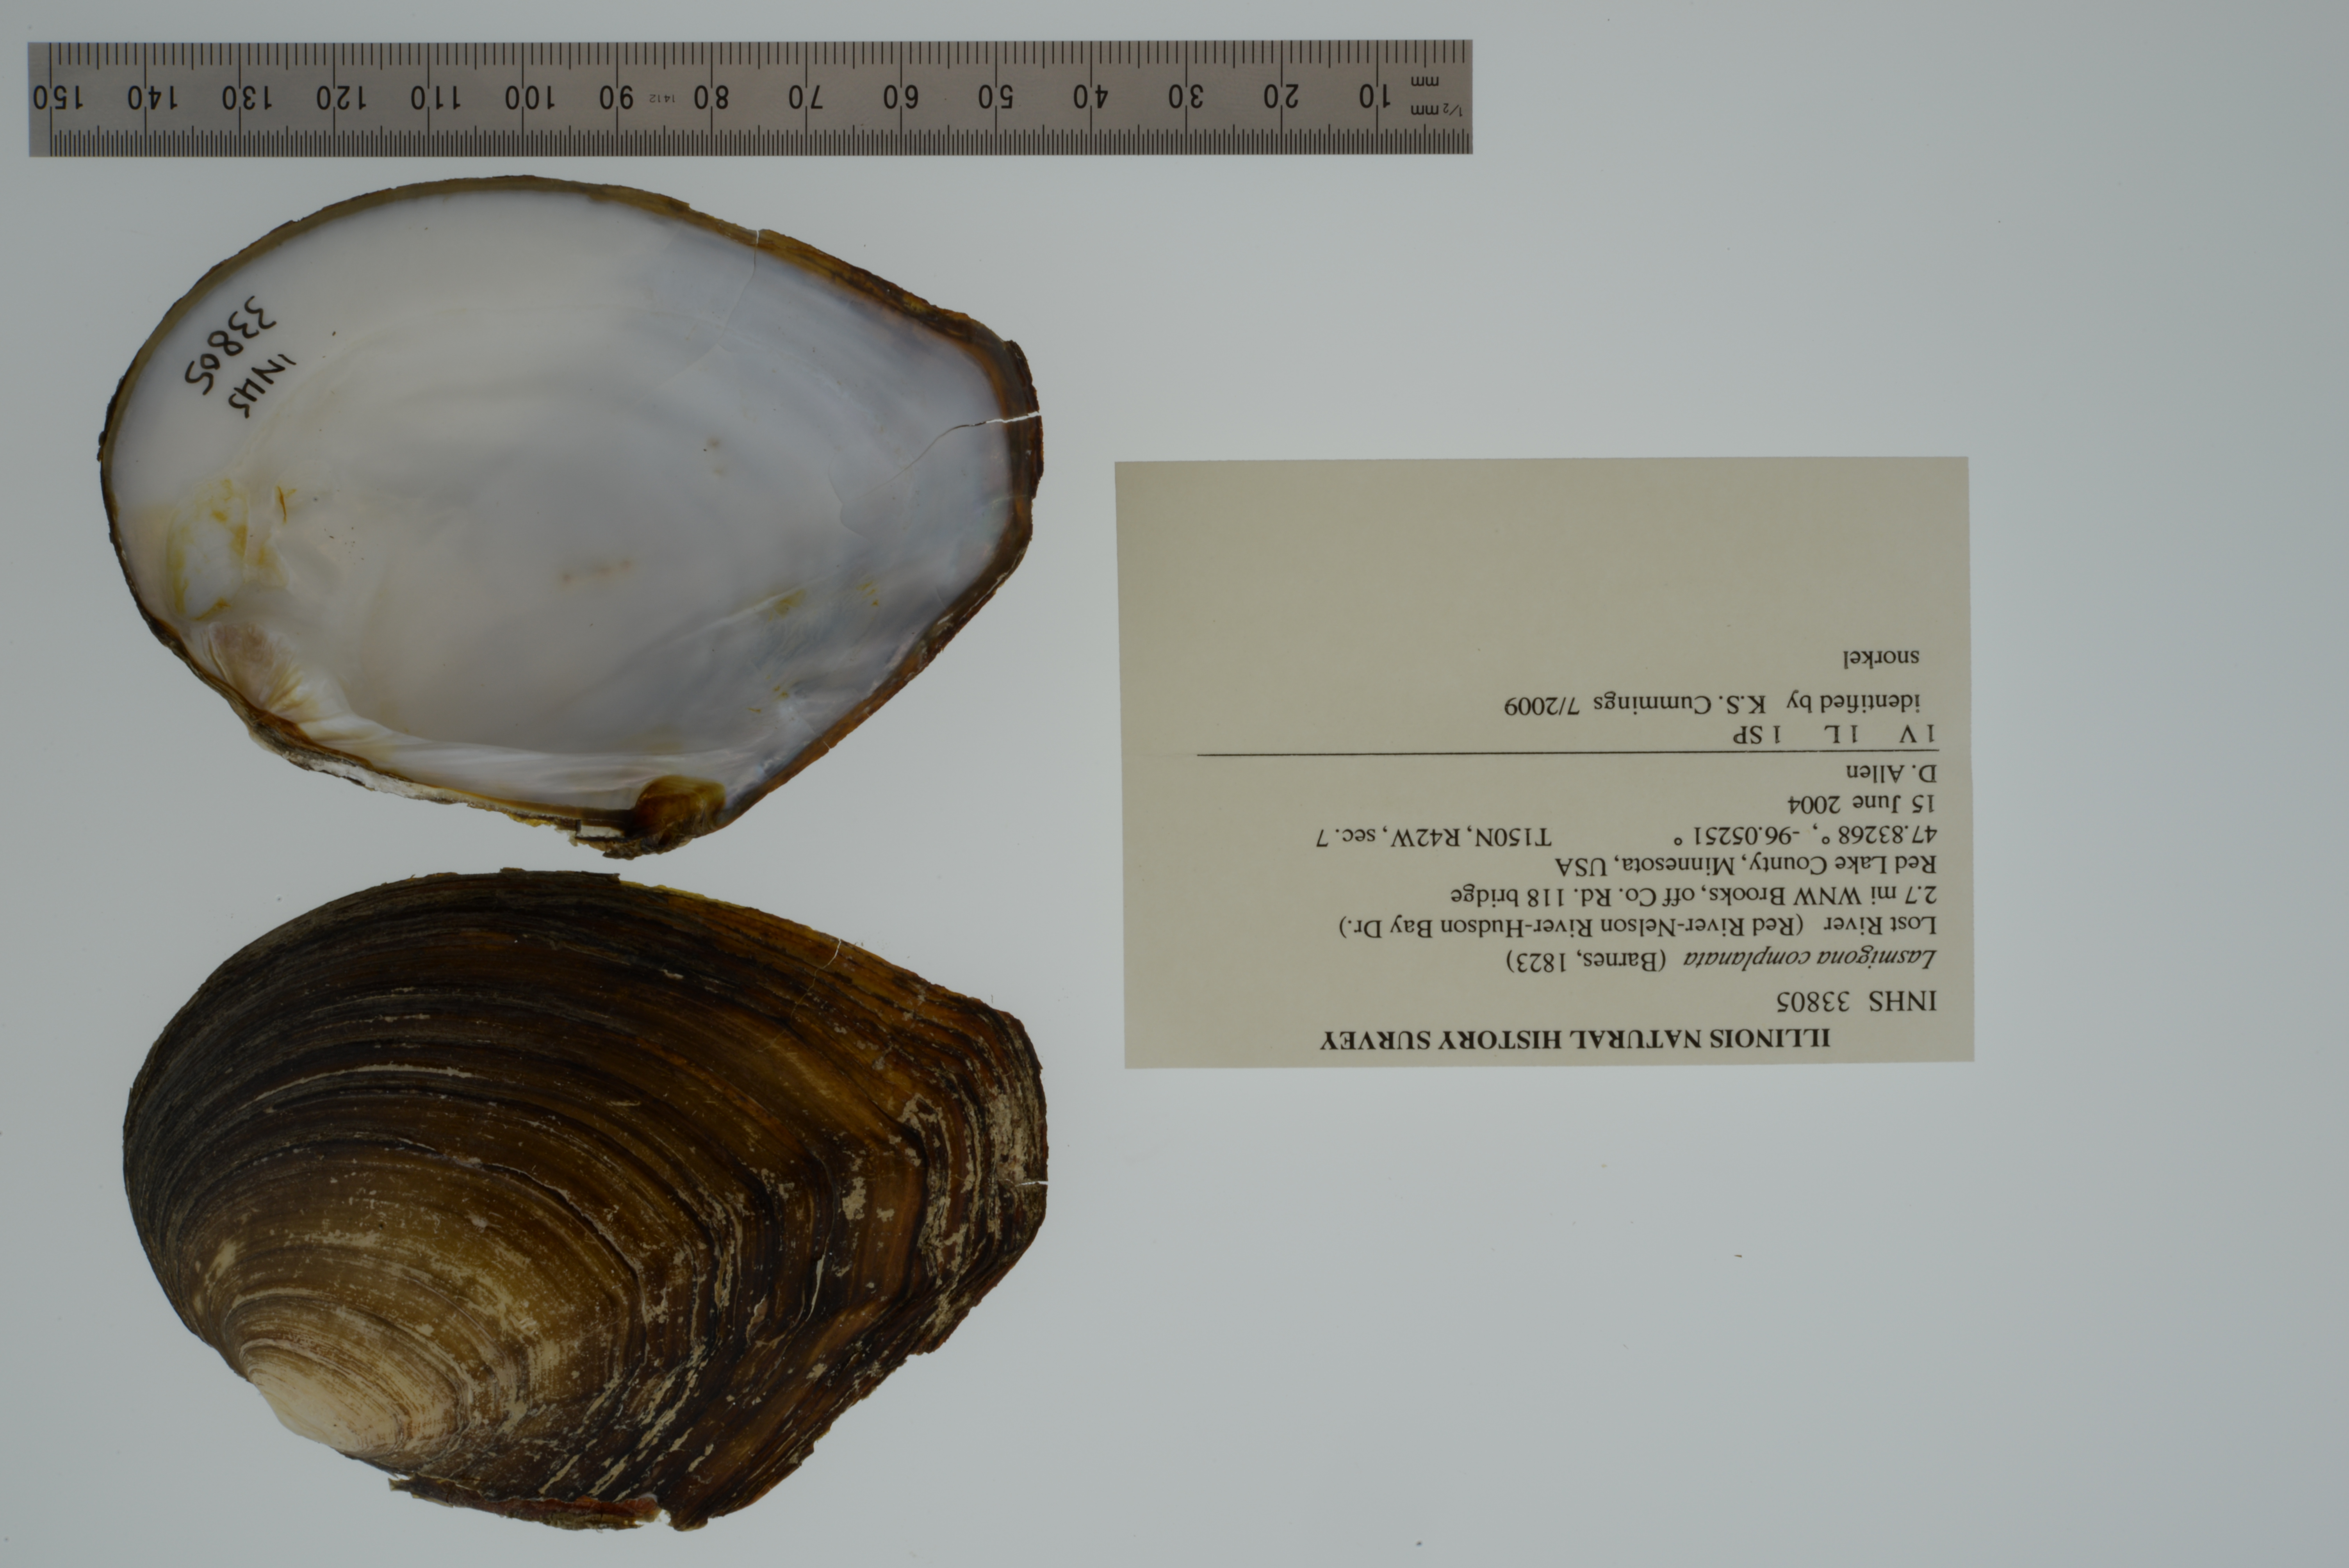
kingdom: Animalia
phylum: Mollusca
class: Bivalvia
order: Unionida
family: Unionidae
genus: Lasmigona
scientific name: Lasmigona complanata
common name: White heelsplitter
